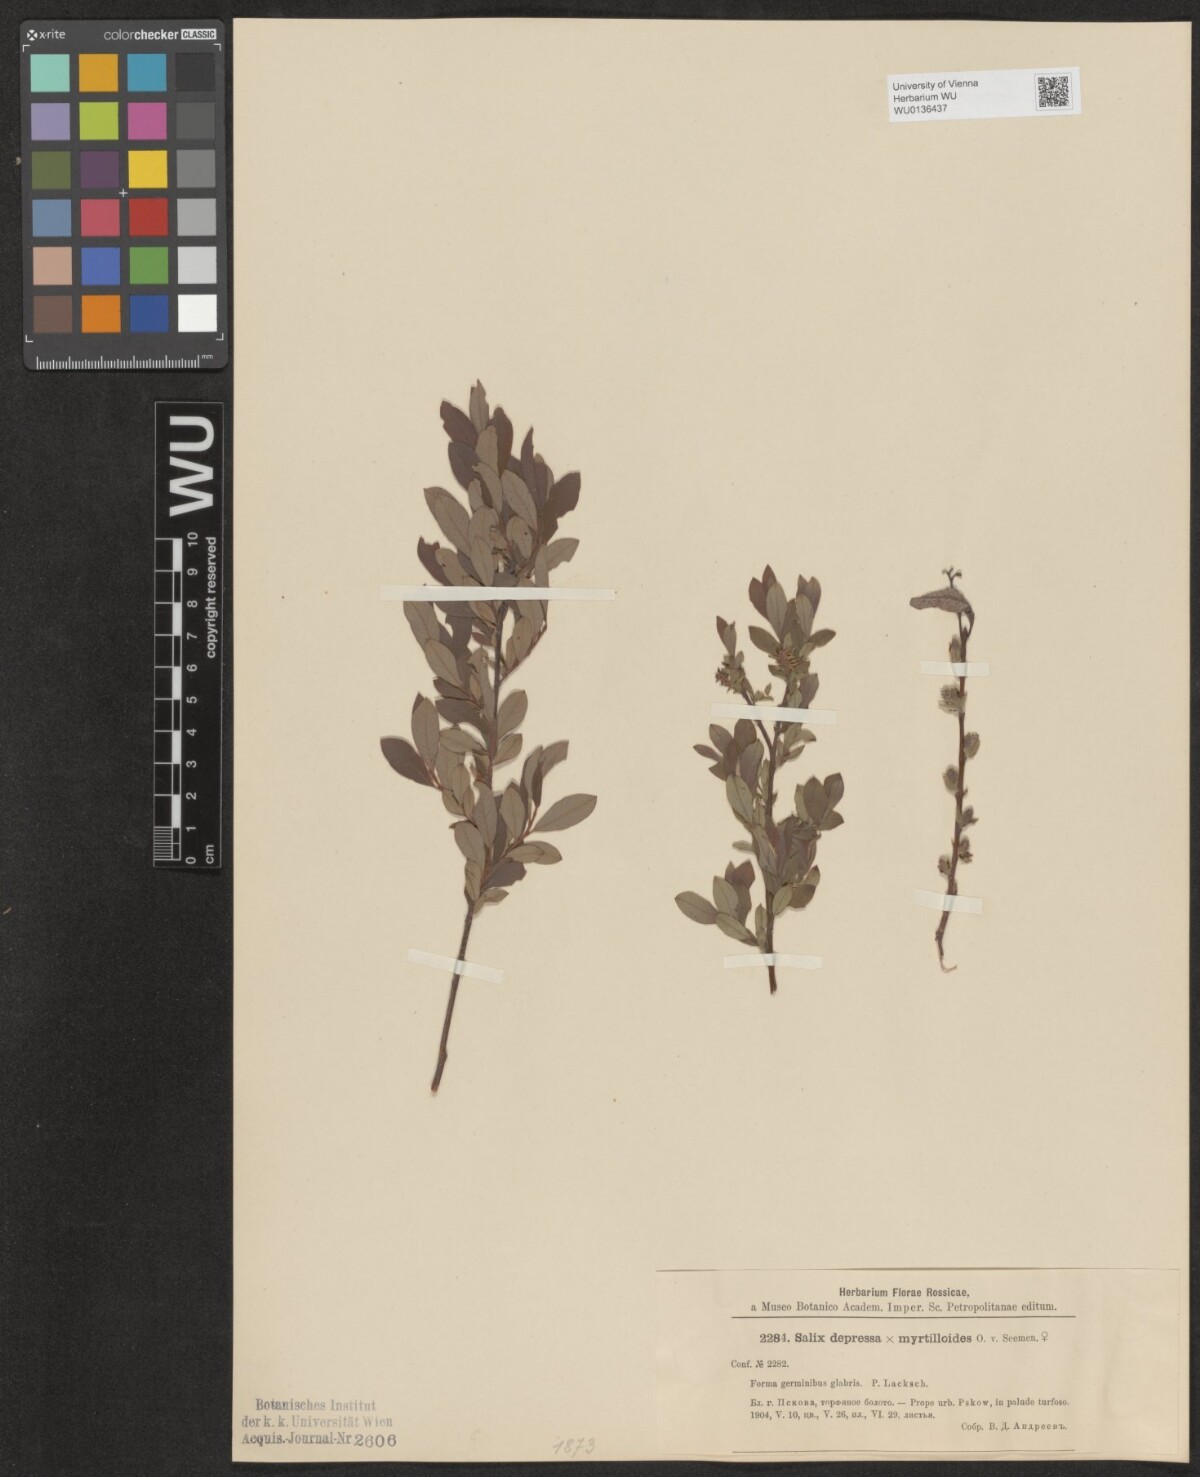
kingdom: Plantae
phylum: Tracheophyta
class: Magnoliopsida
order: Malpighiales
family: Salicaceae
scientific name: Salicaceae
